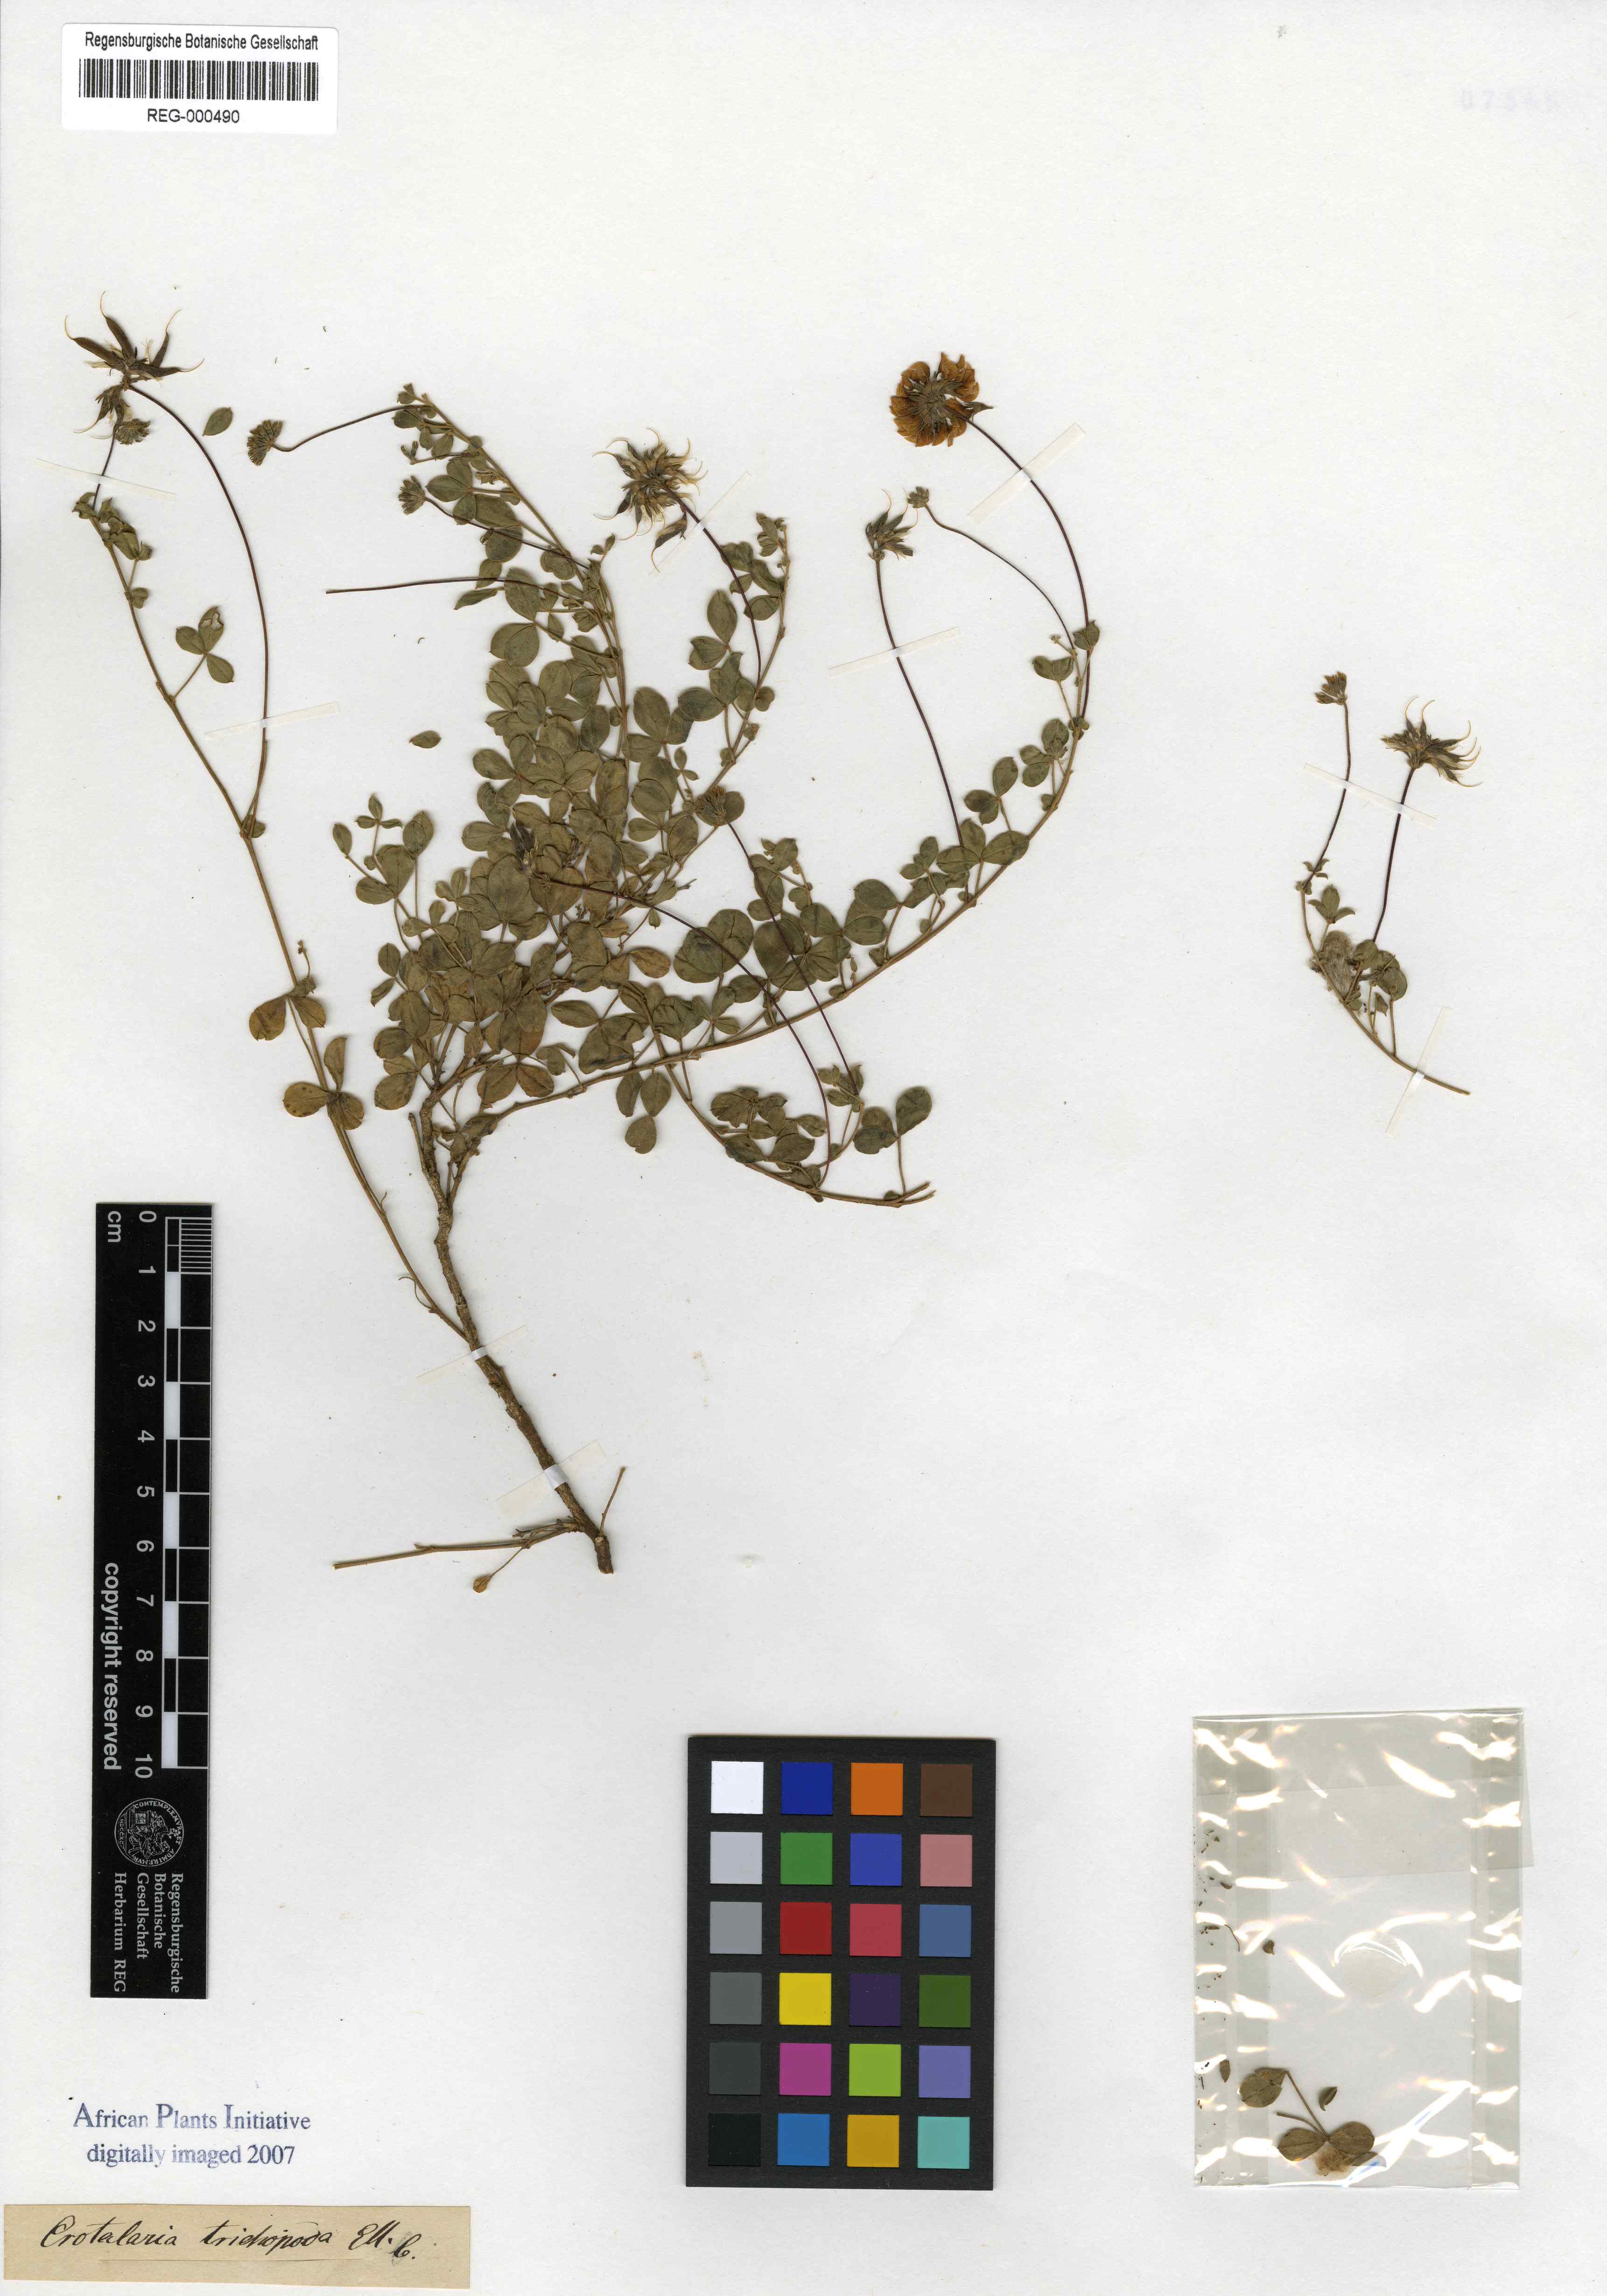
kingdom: Plantae
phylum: Tracheophyta
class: Magnoliopsida
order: Fabales
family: Fabaceae
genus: Lotononis
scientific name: Lotononis glabra
